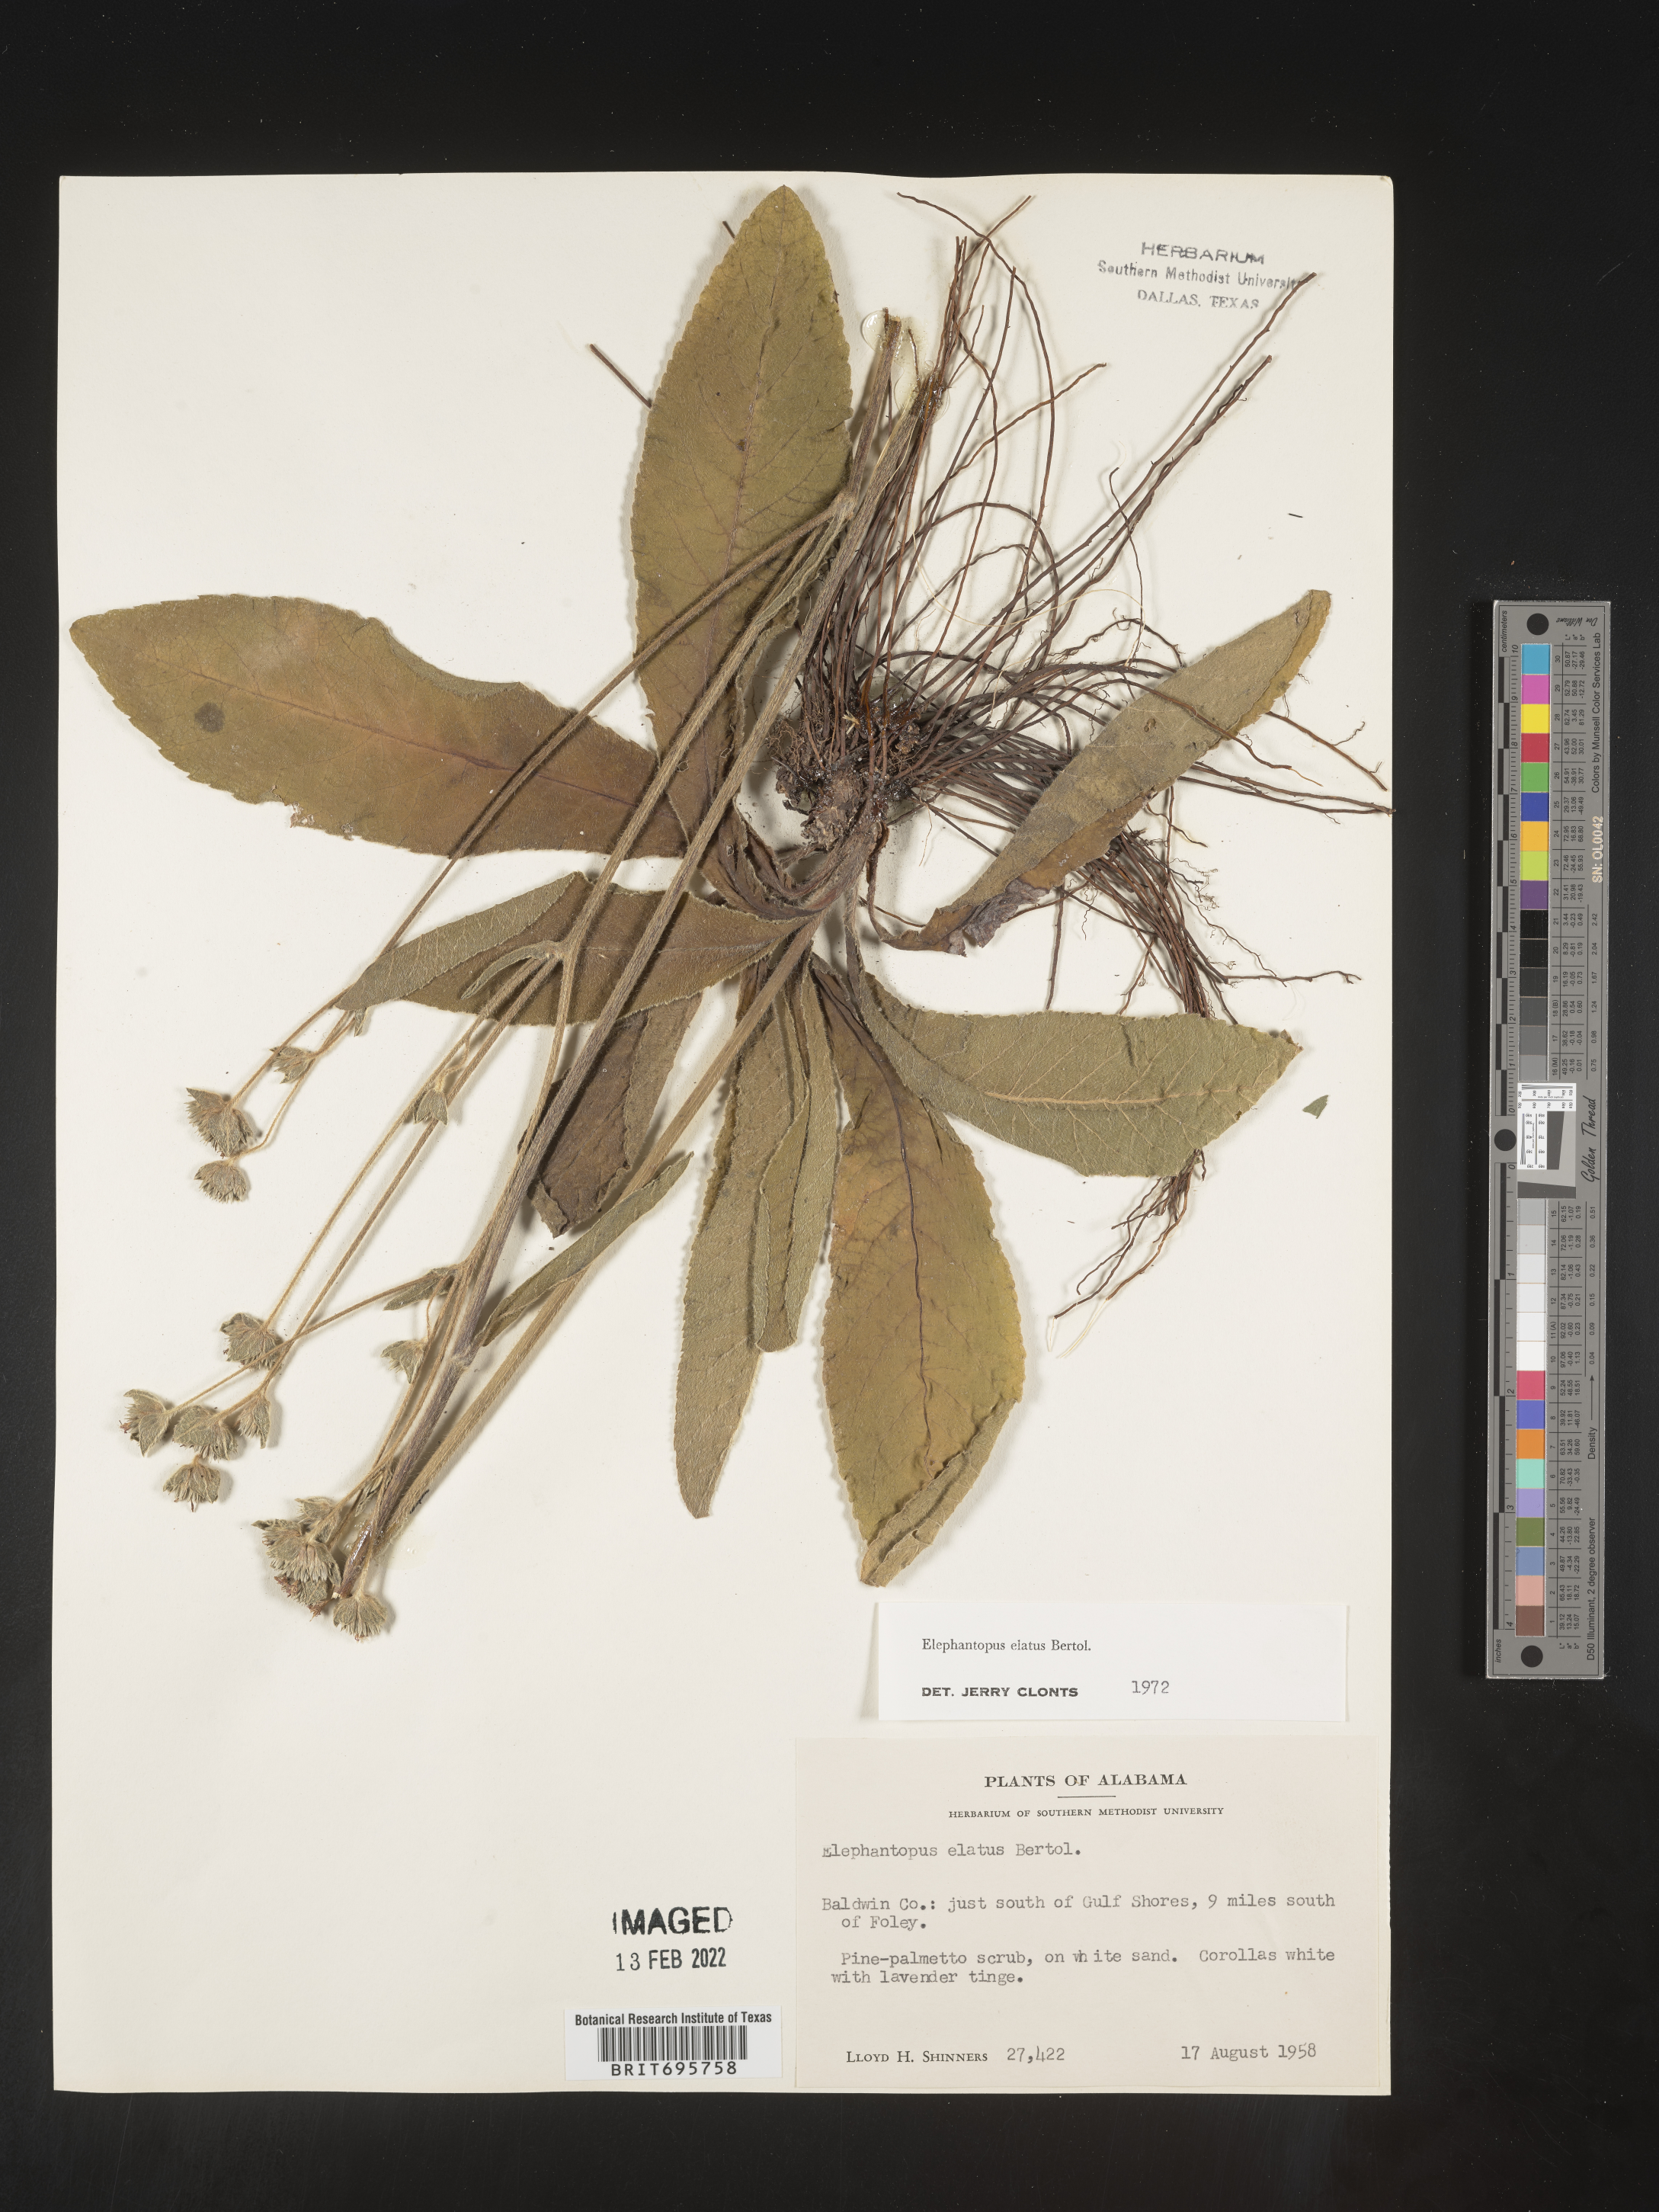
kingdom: Plantae
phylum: Tracheophyta
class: Magnoliopsida
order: Asterales
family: Asteraceae
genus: Elephantopus
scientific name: Elephantopus elatus
